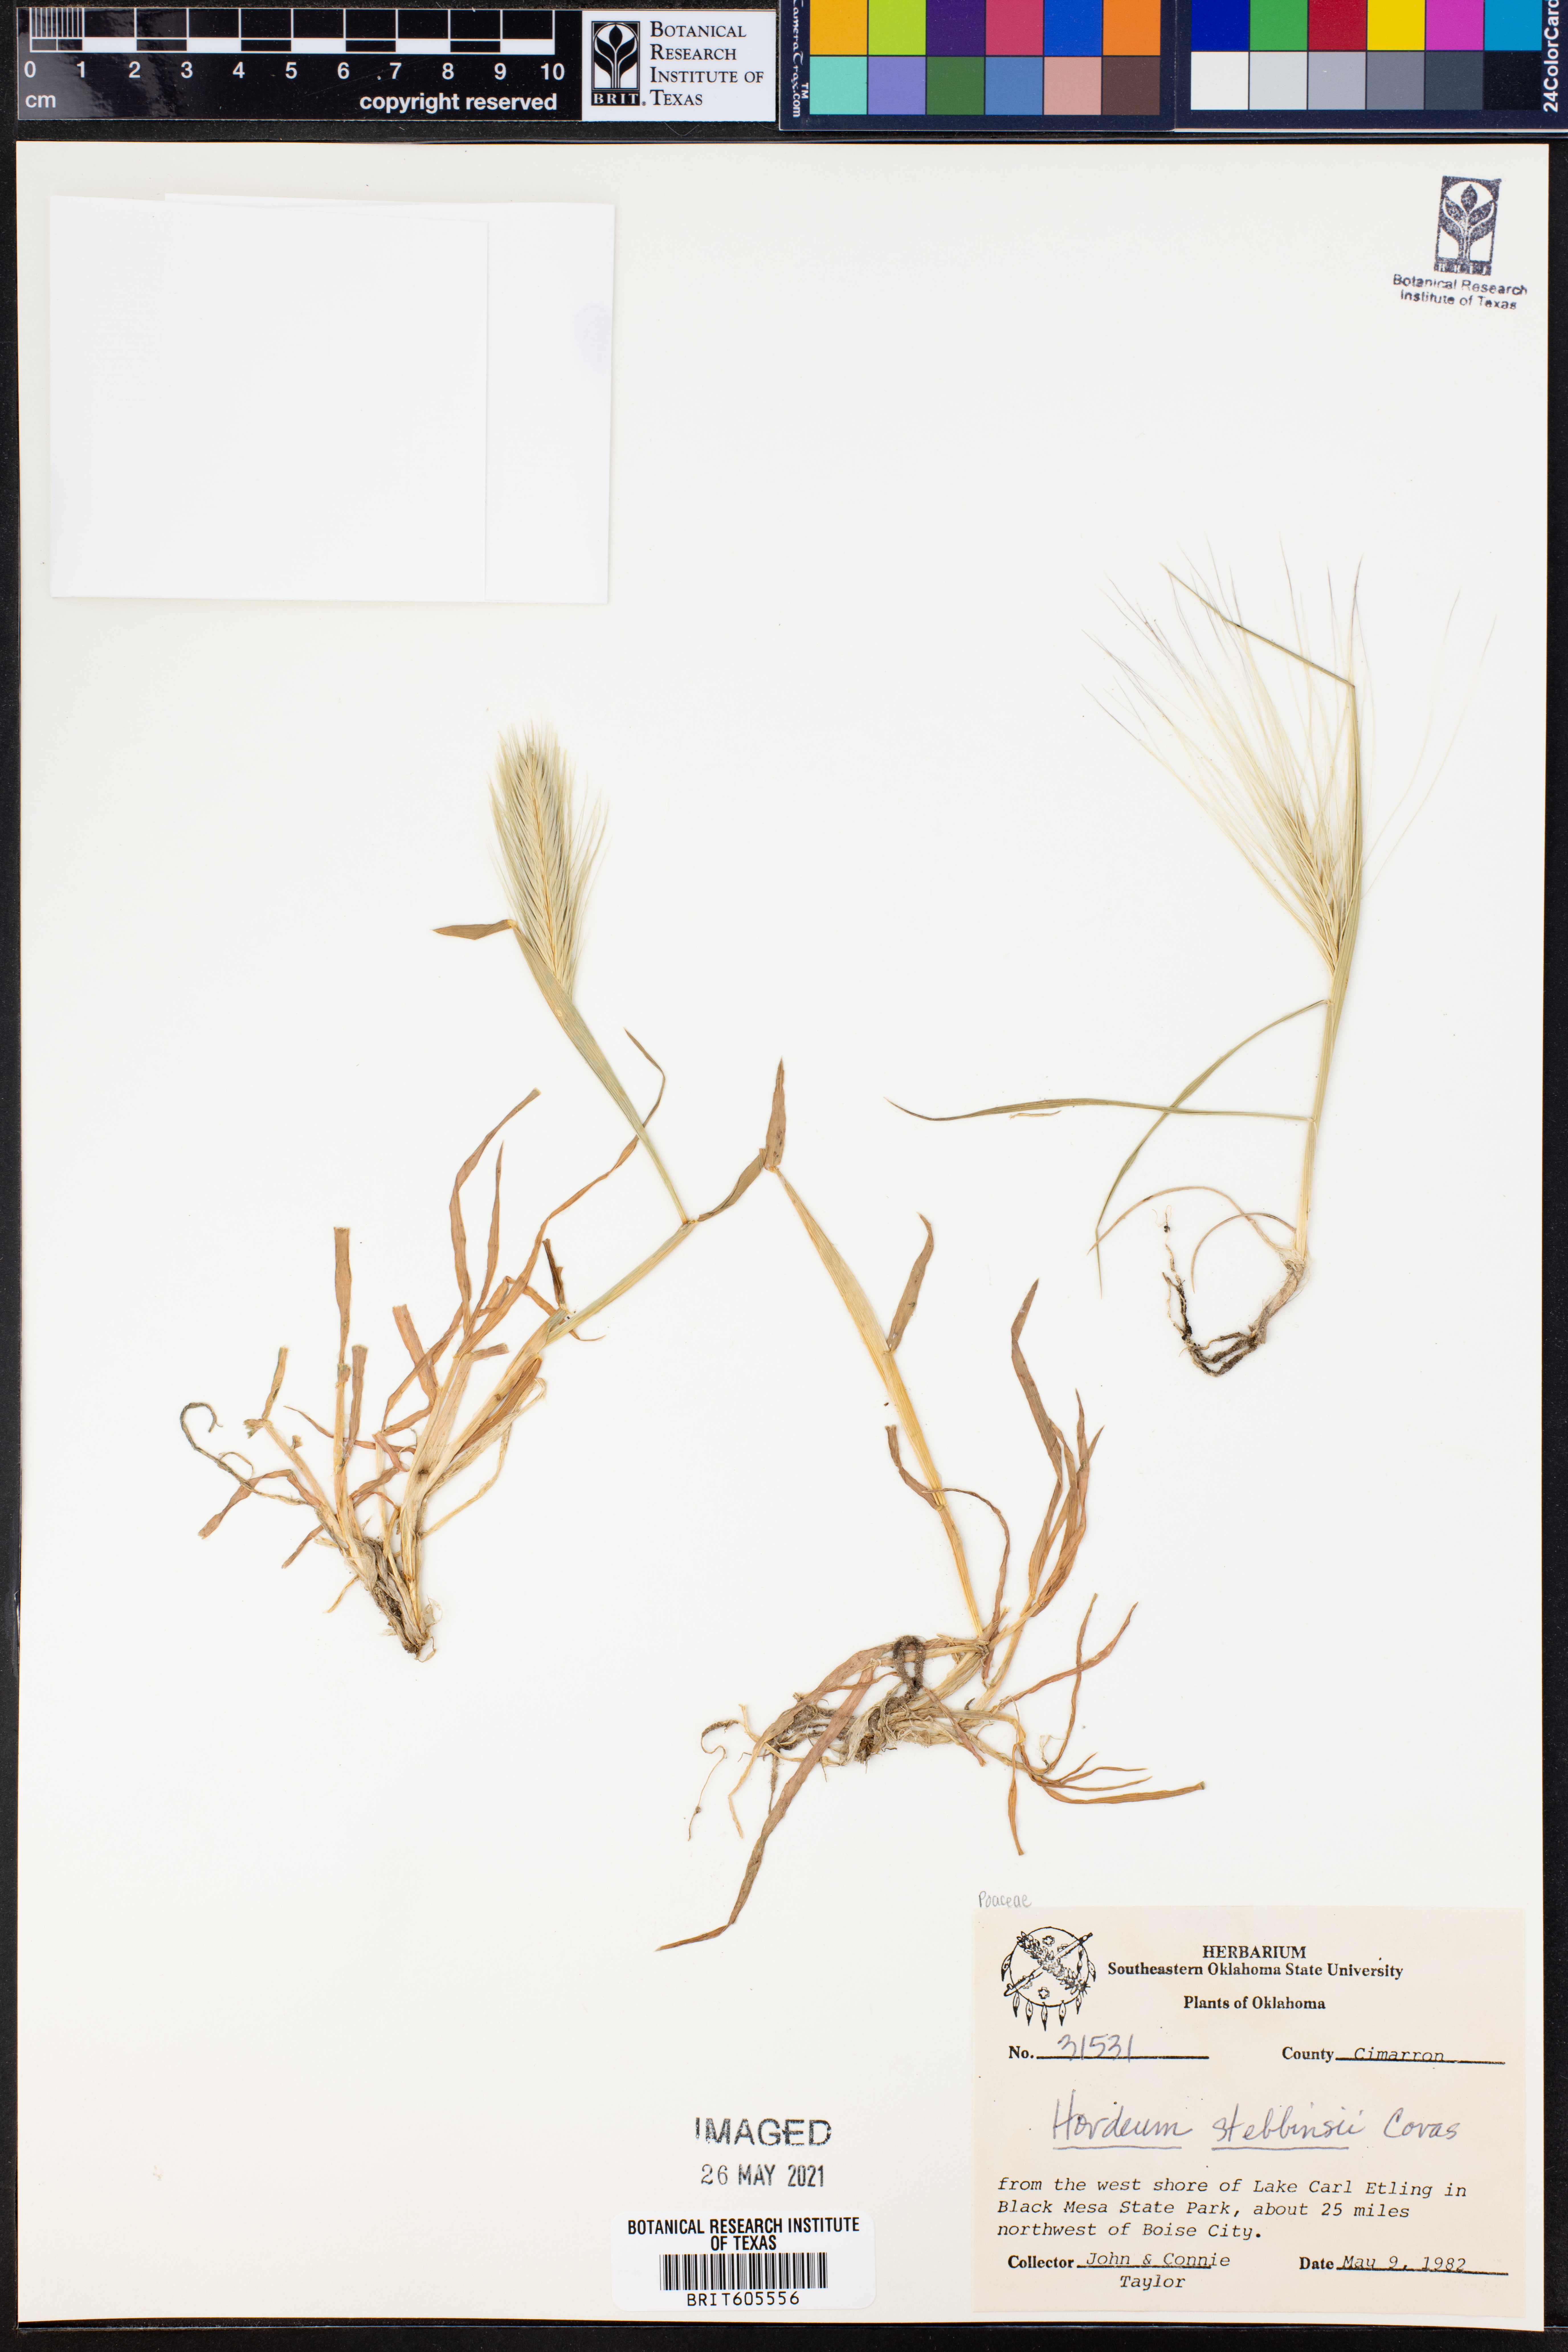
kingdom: Plantae
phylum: Tracheophyta
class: Liliopsida
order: Poales
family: Poaceae
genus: Hordeum
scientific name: Hordeum murinum
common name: Wall barley
